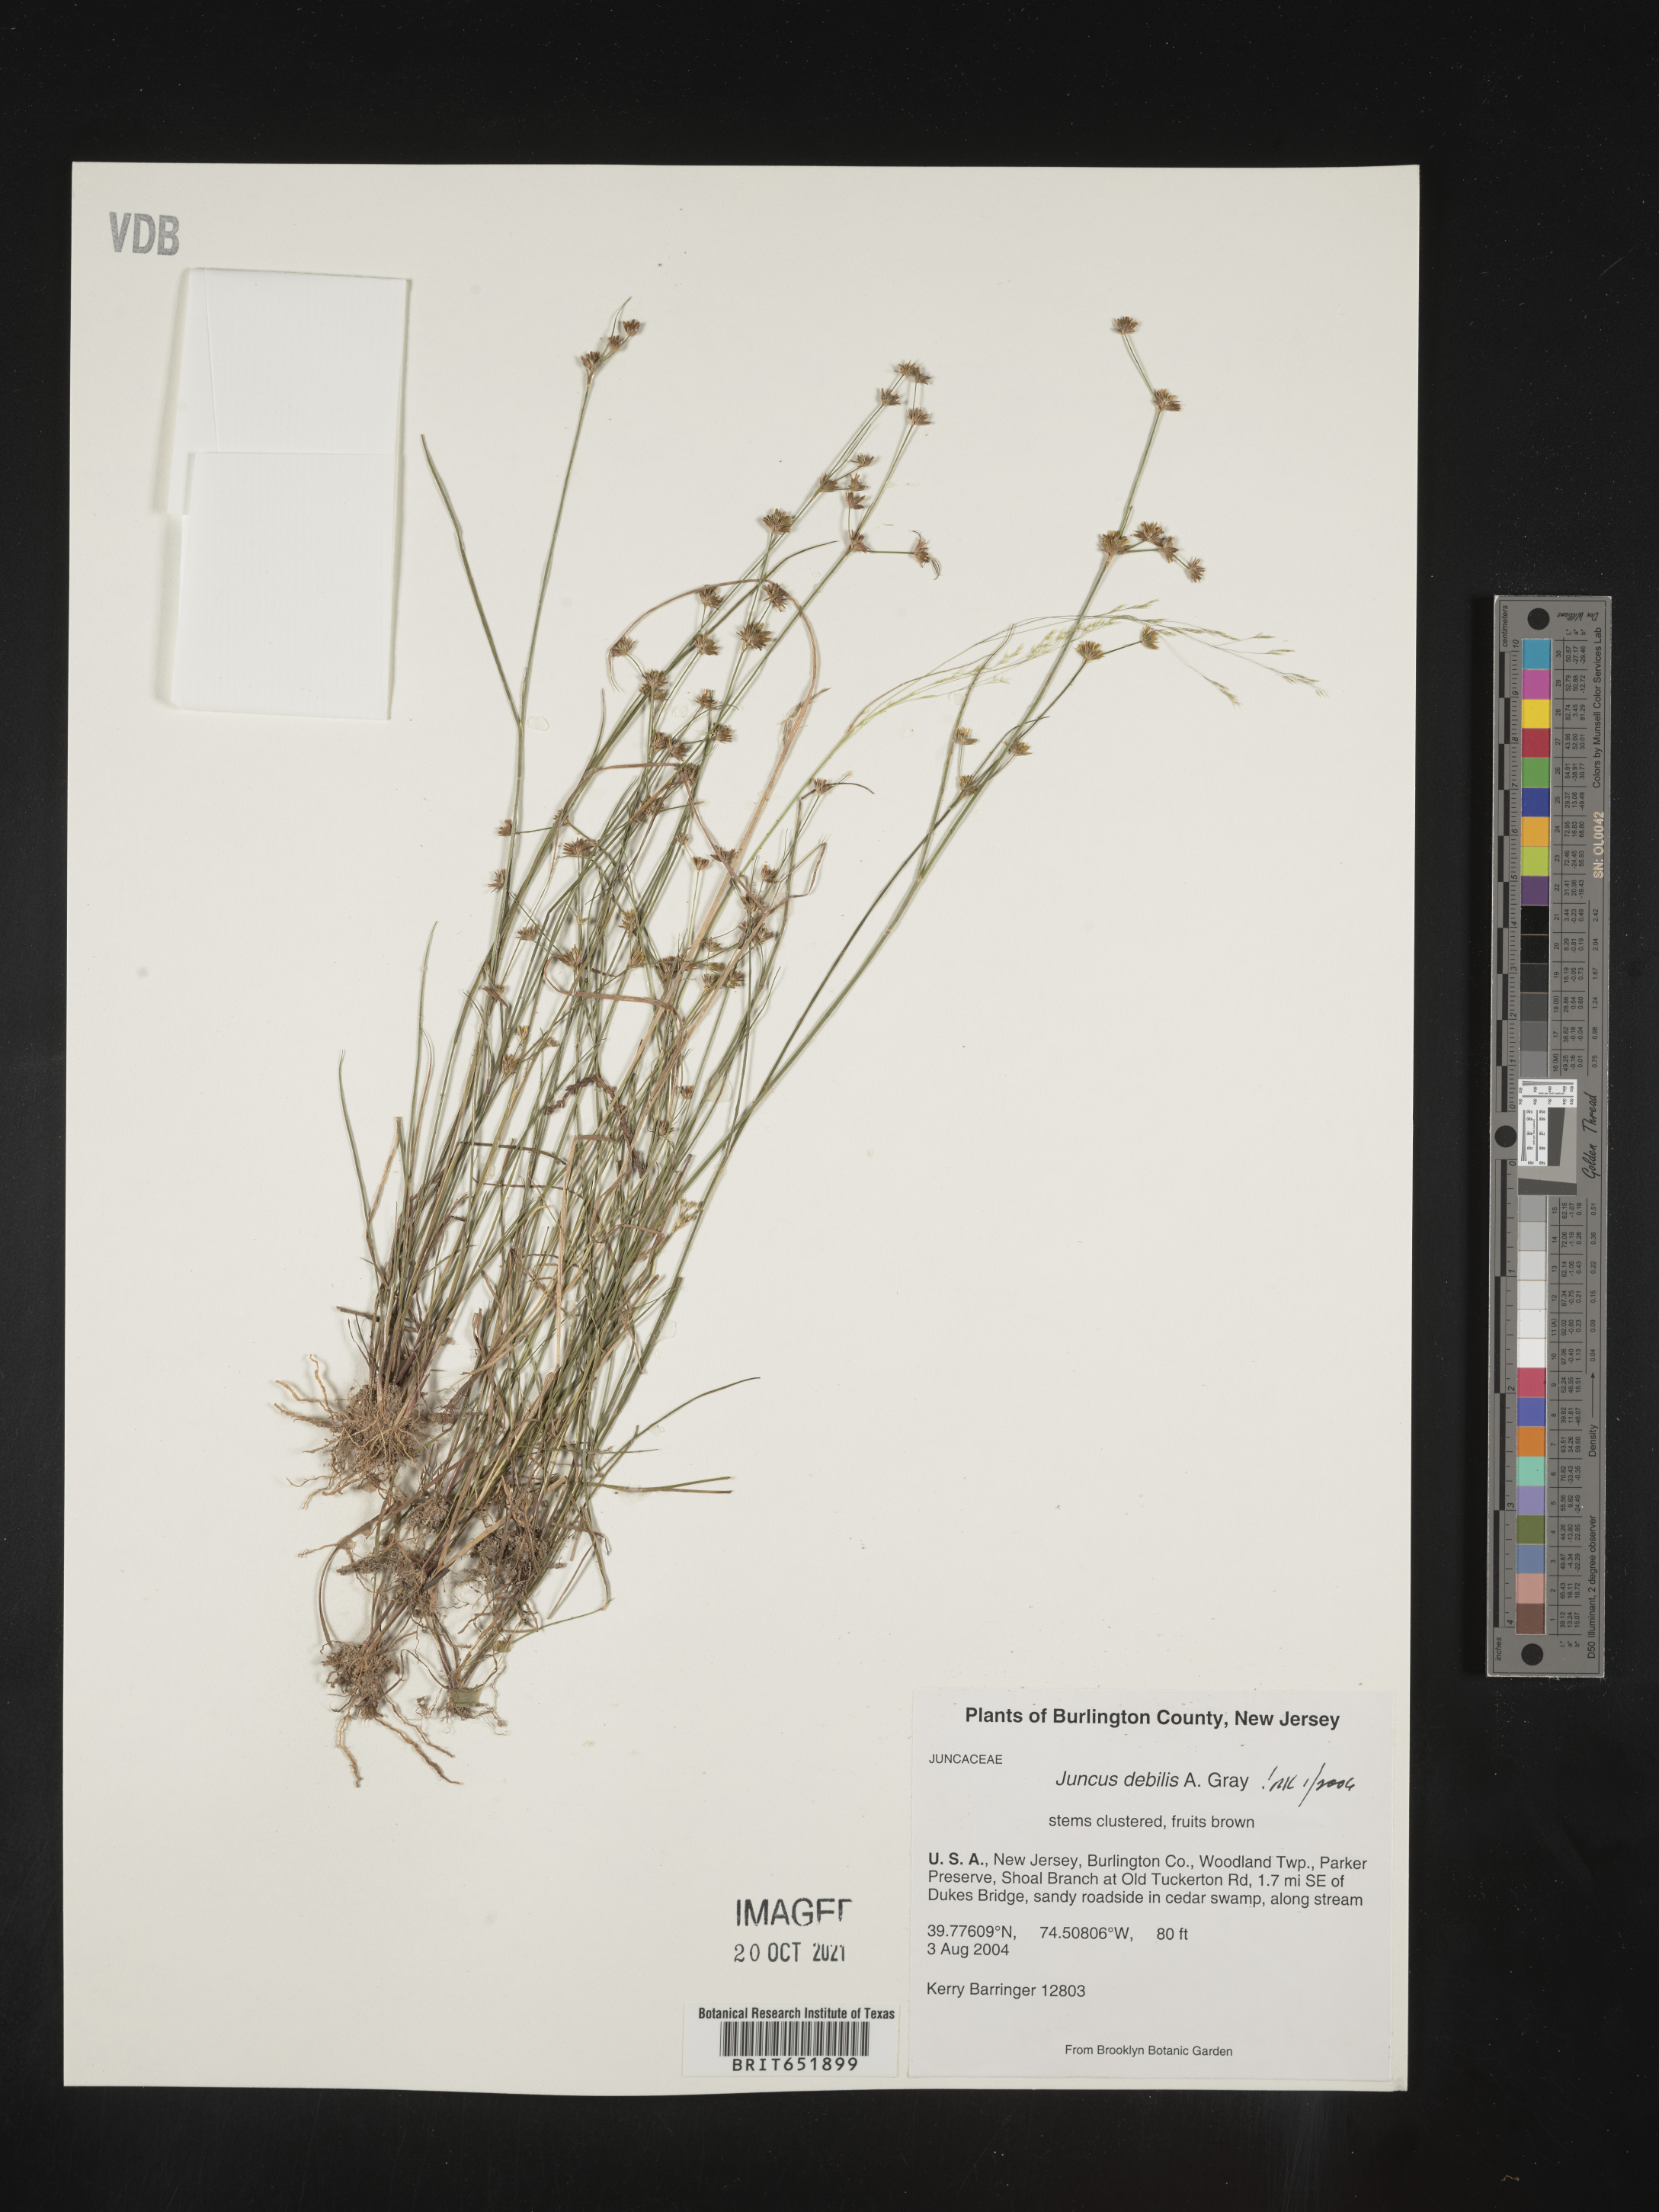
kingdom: Plantae
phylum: Tracheophyta
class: Liliopsida
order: Poales
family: Juncaceae
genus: Juncus
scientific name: Juncus debilis
